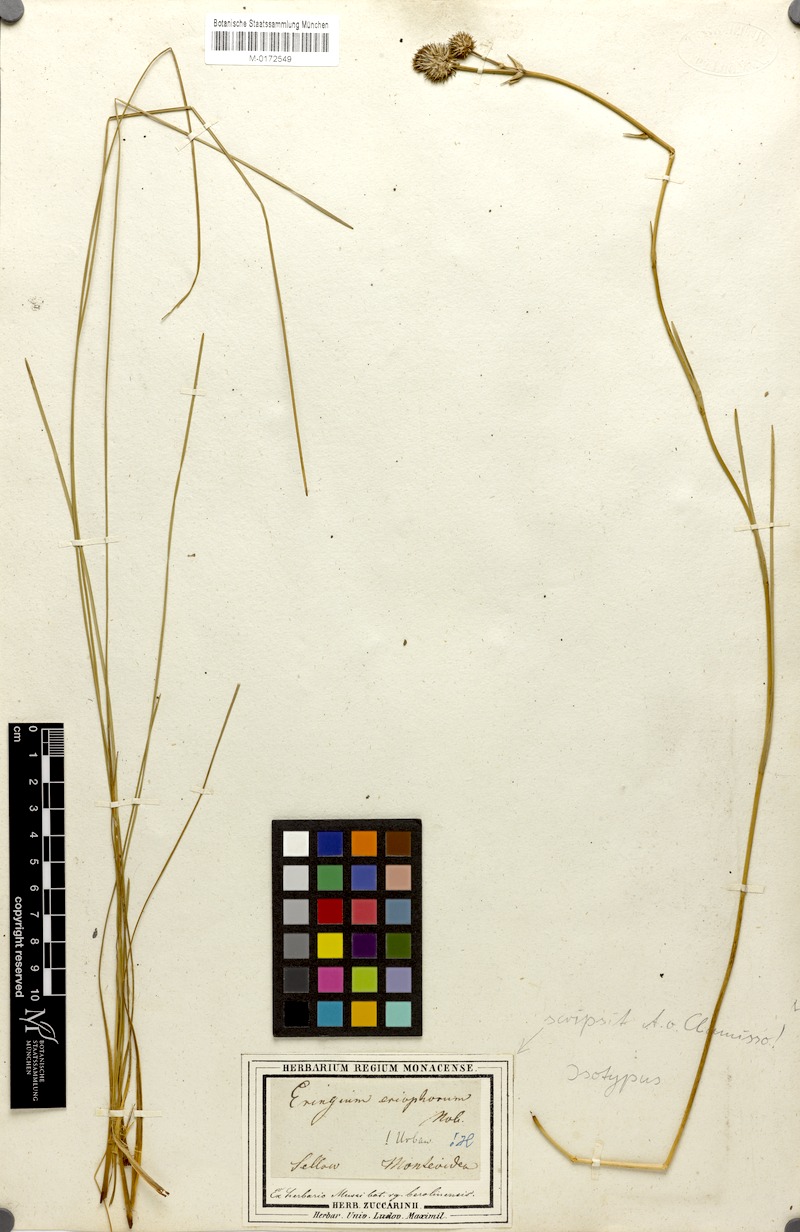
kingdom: Plantae
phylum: Tracheophyta
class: Magnoliopsida
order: Apiales
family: Apiaceae
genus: Eryngium
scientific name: Eryngium eriophorum
